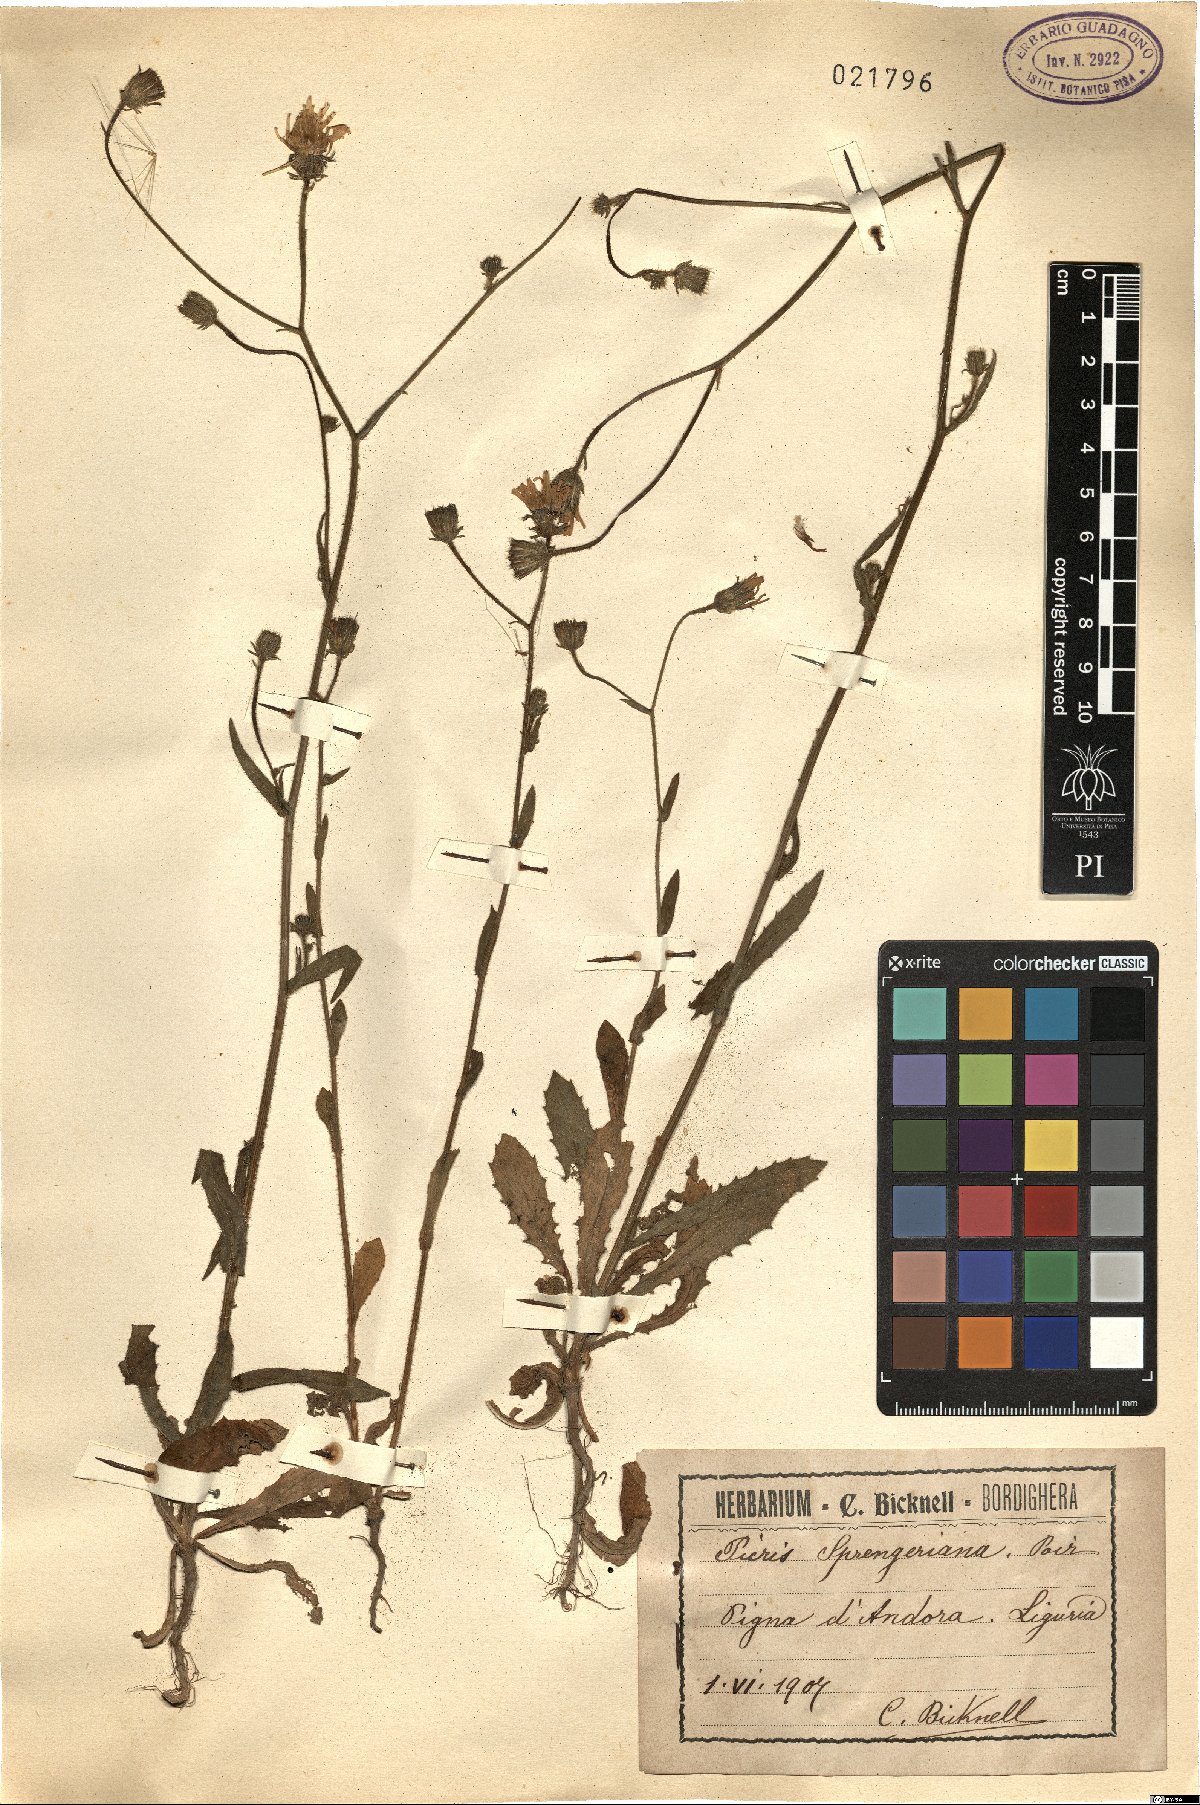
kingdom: Plantae
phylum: Tracheophyta
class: Magnoliopsida
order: Asterales
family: Asteraceae
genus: Picris
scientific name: Picris rhagadioloides
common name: Oxtongue
